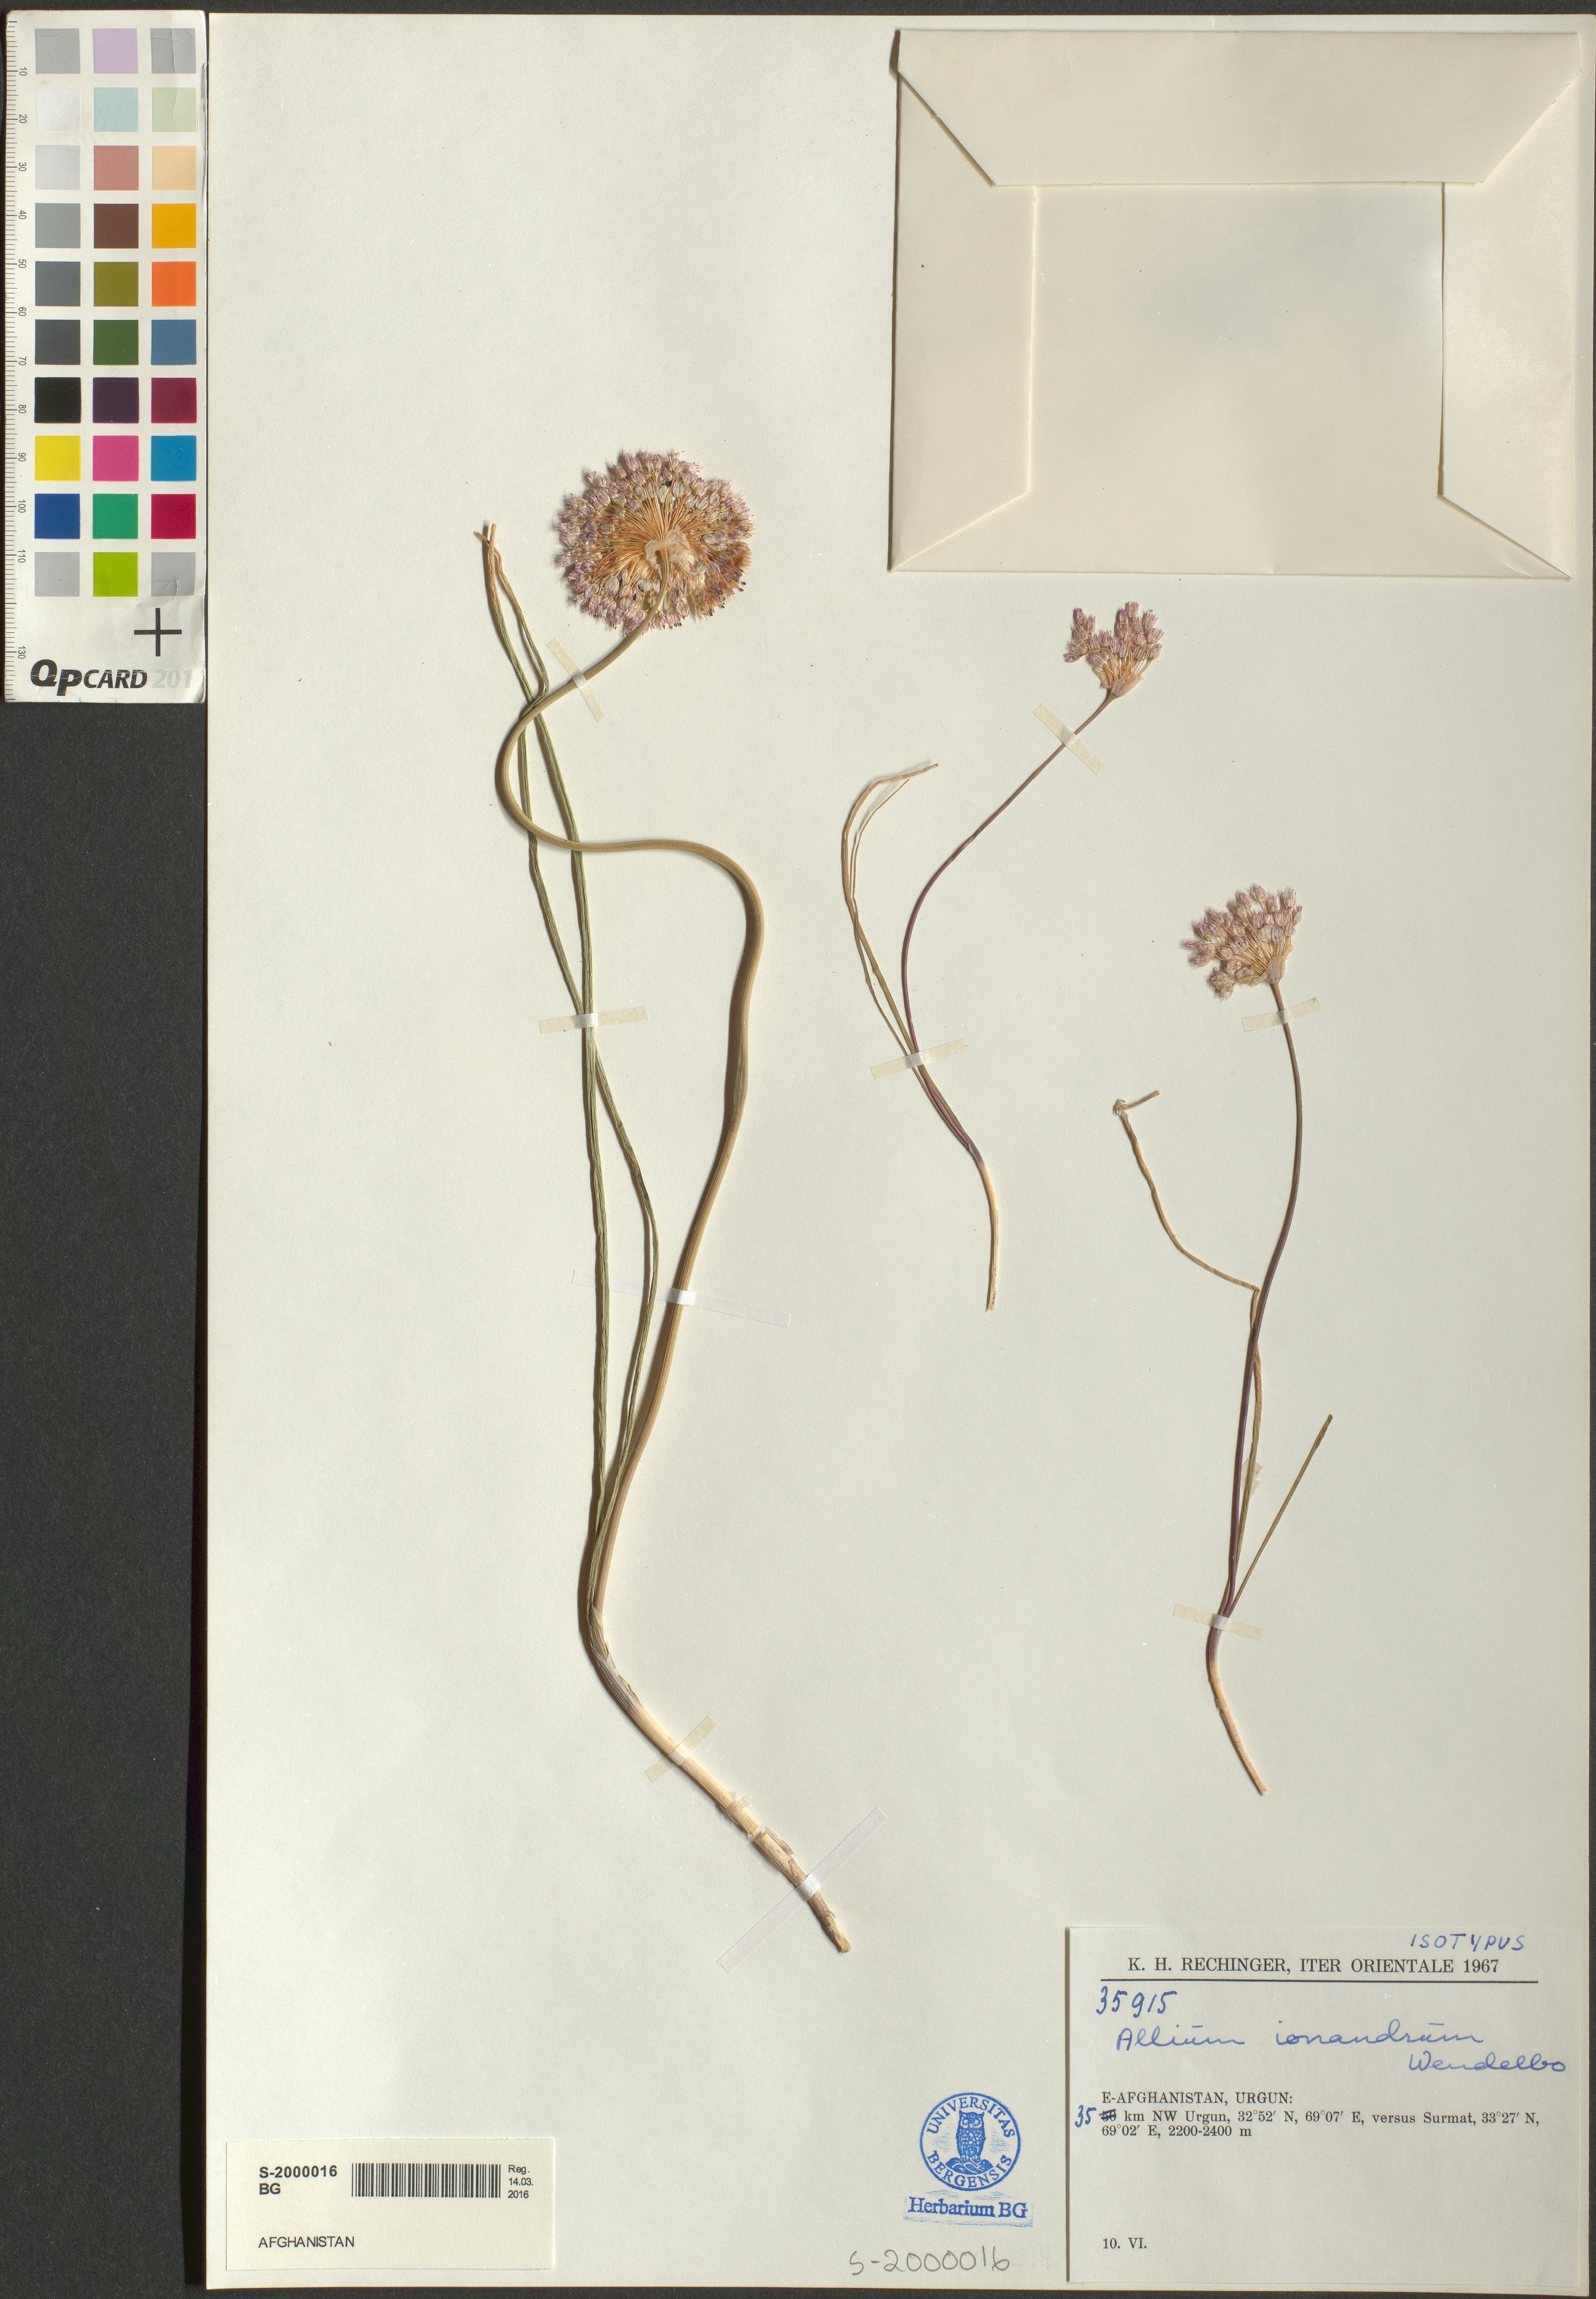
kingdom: Plantae
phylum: Tracheophyta
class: Liliopsida
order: Asparagales
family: Amaryllidaceae
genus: Allium
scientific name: Allium ionandrum
